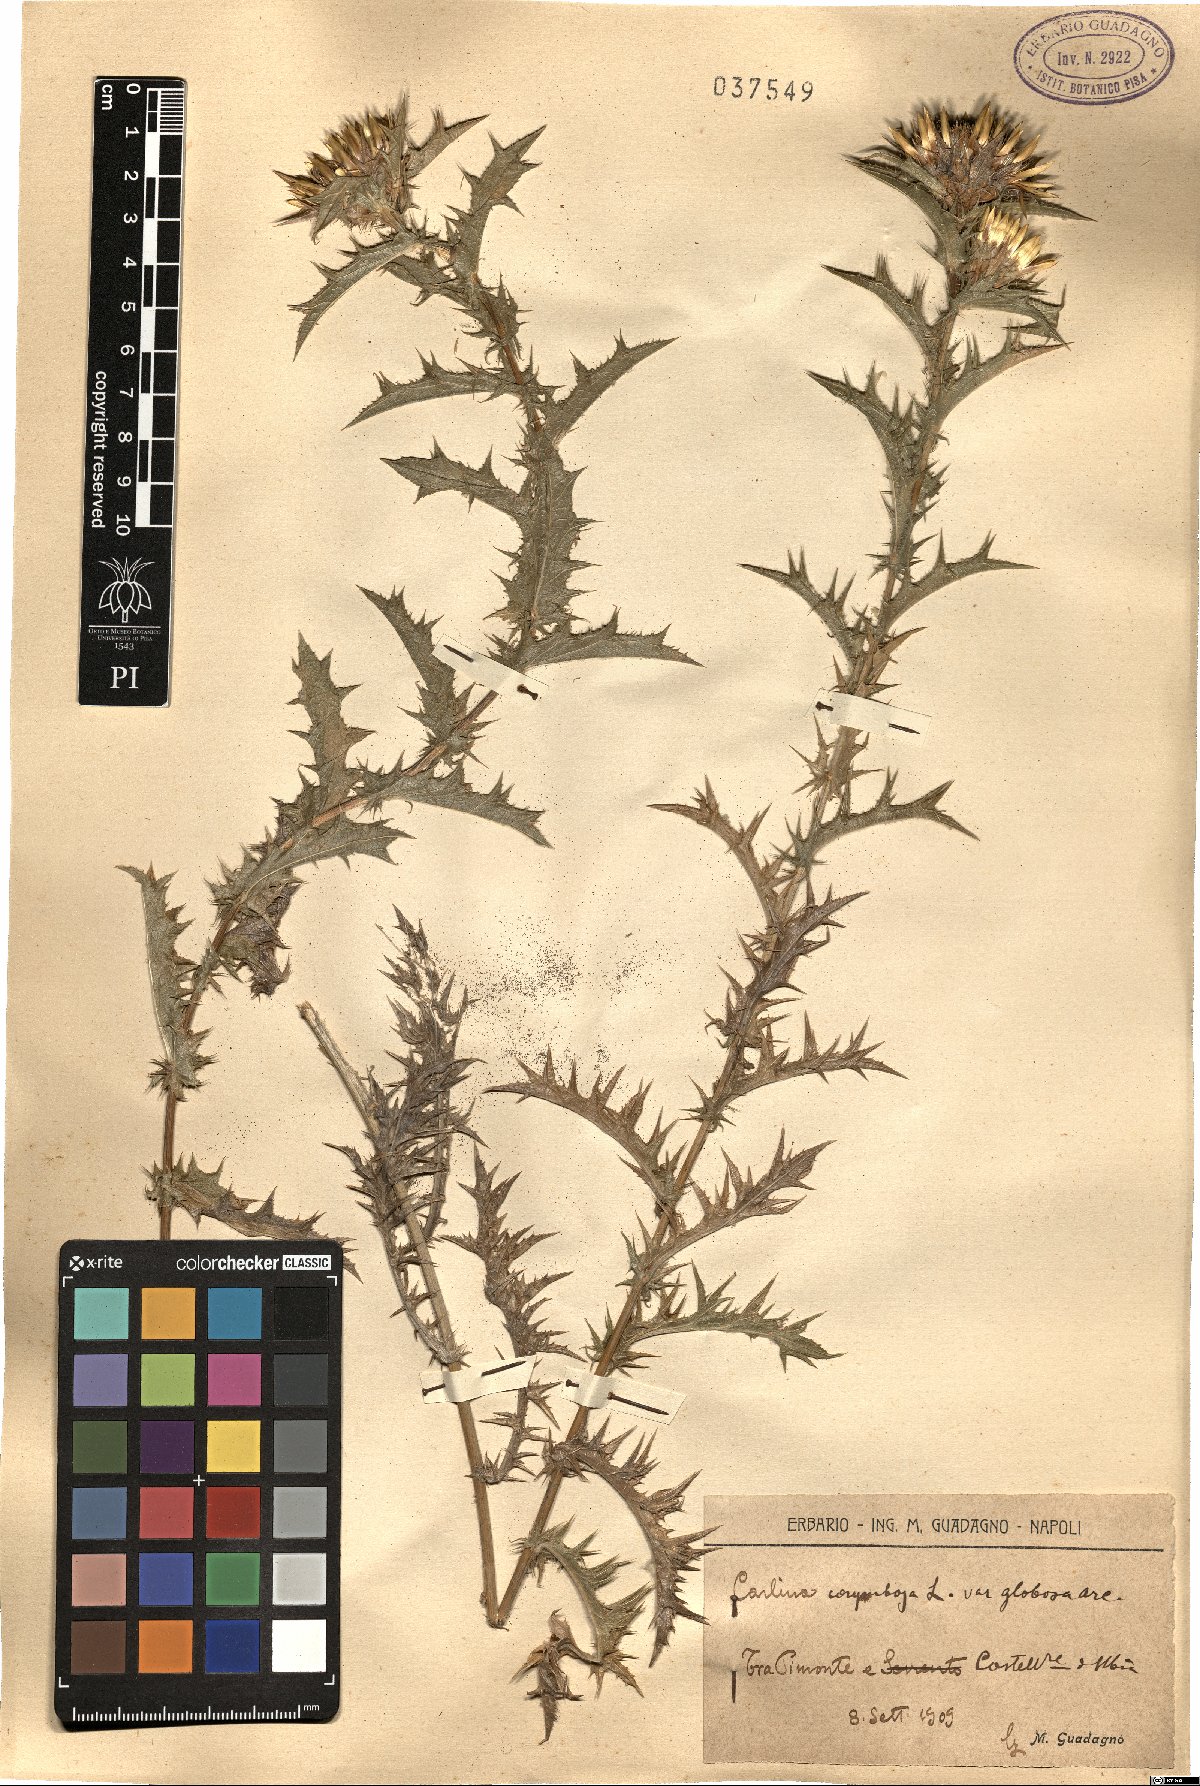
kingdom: Plantae
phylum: Tracheophyta
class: Magnoliopsida
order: Asterales
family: Asteraceae
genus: Carlina
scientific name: Carlina corymbosa
